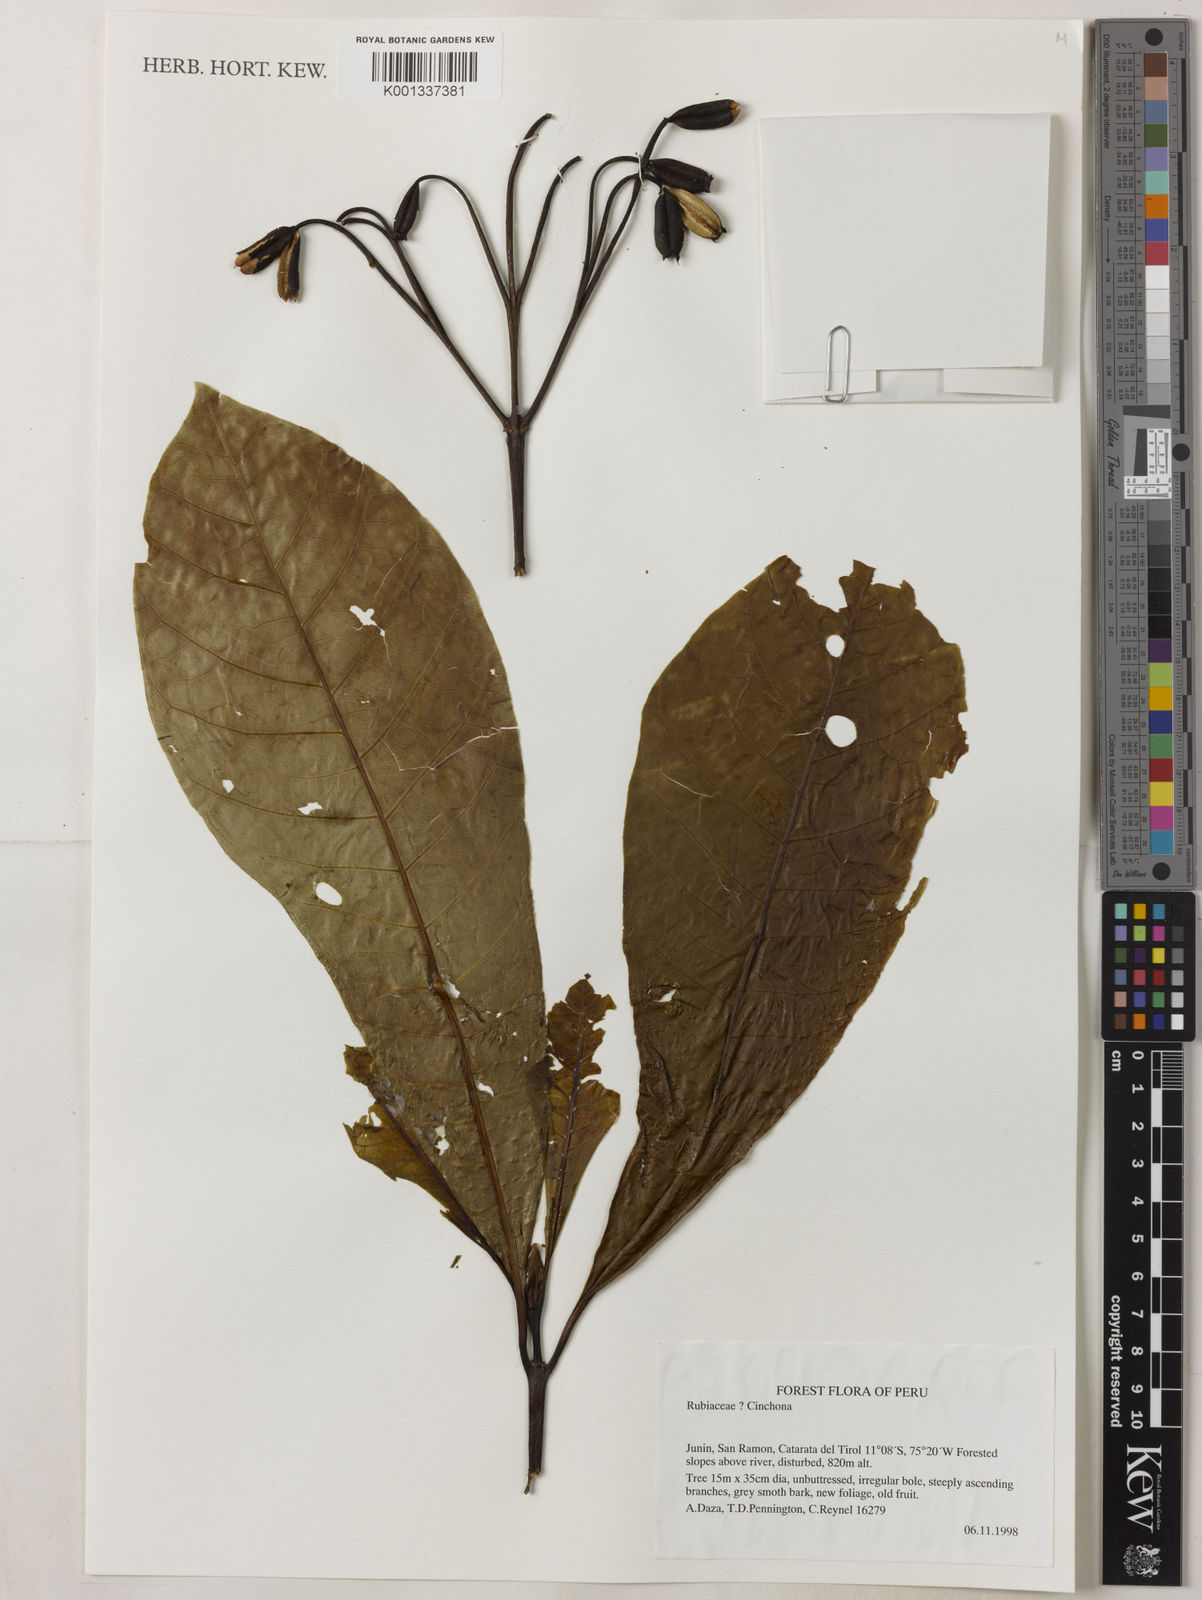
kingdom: Plantae
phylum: Tracheophyta
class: Magnoliopsida
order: Gentianales
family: Rubiaceae
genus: Cinchona
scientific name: Cinchona
